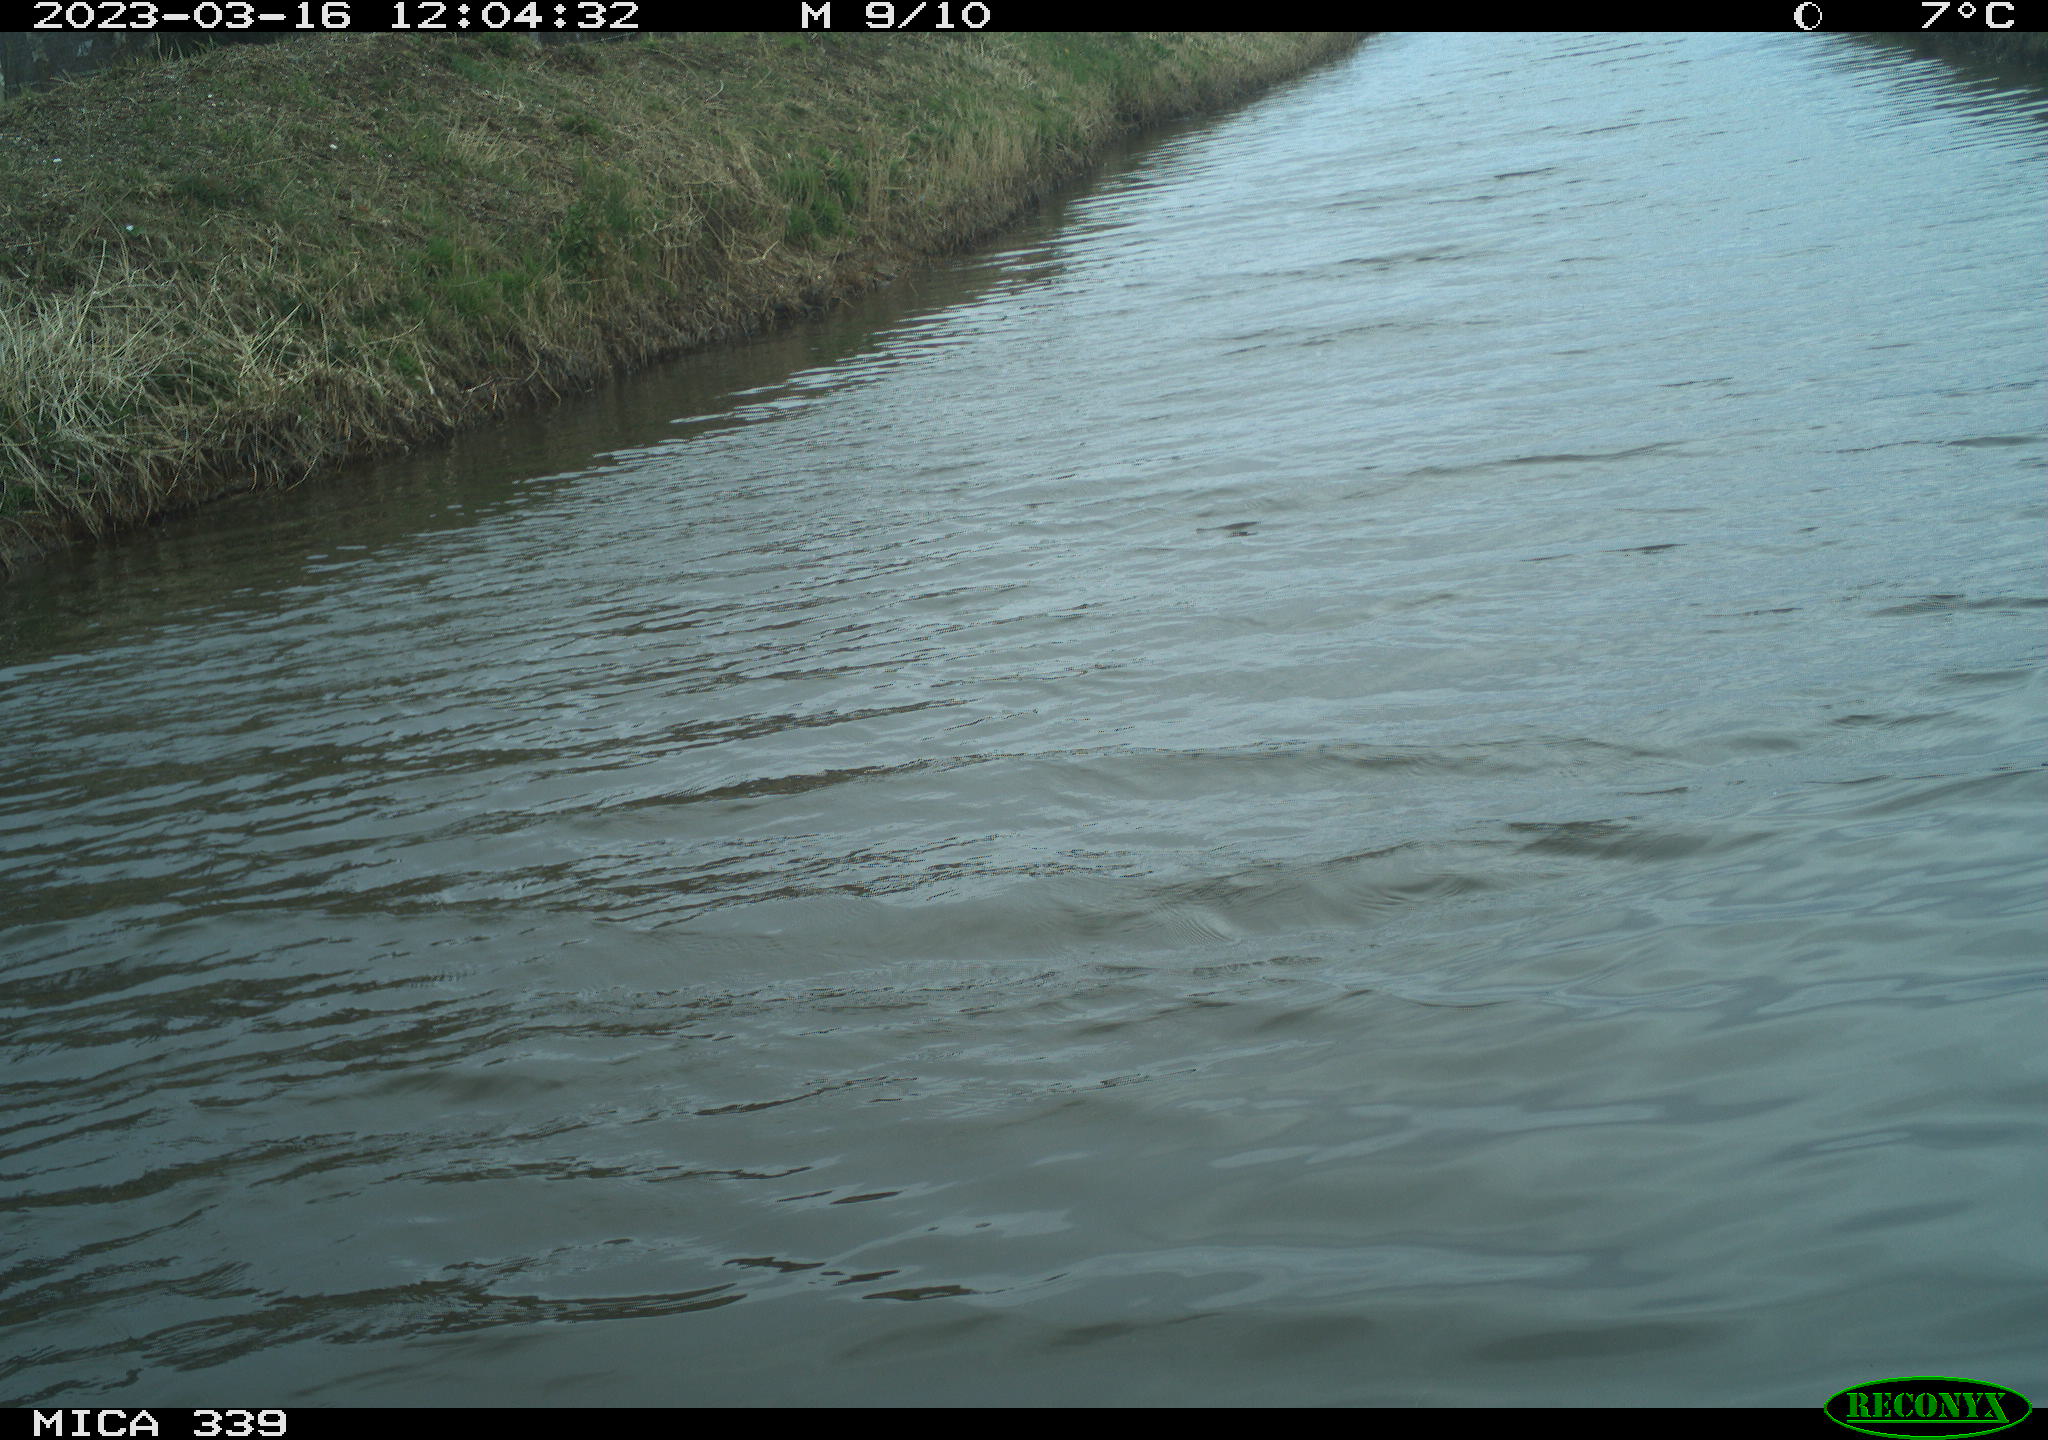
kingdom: Animalia
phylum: Chordata
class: Aves
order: Gruiformes
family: Rallidae
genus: Fulica
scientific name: Fulica atra
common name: Eurasian coot
